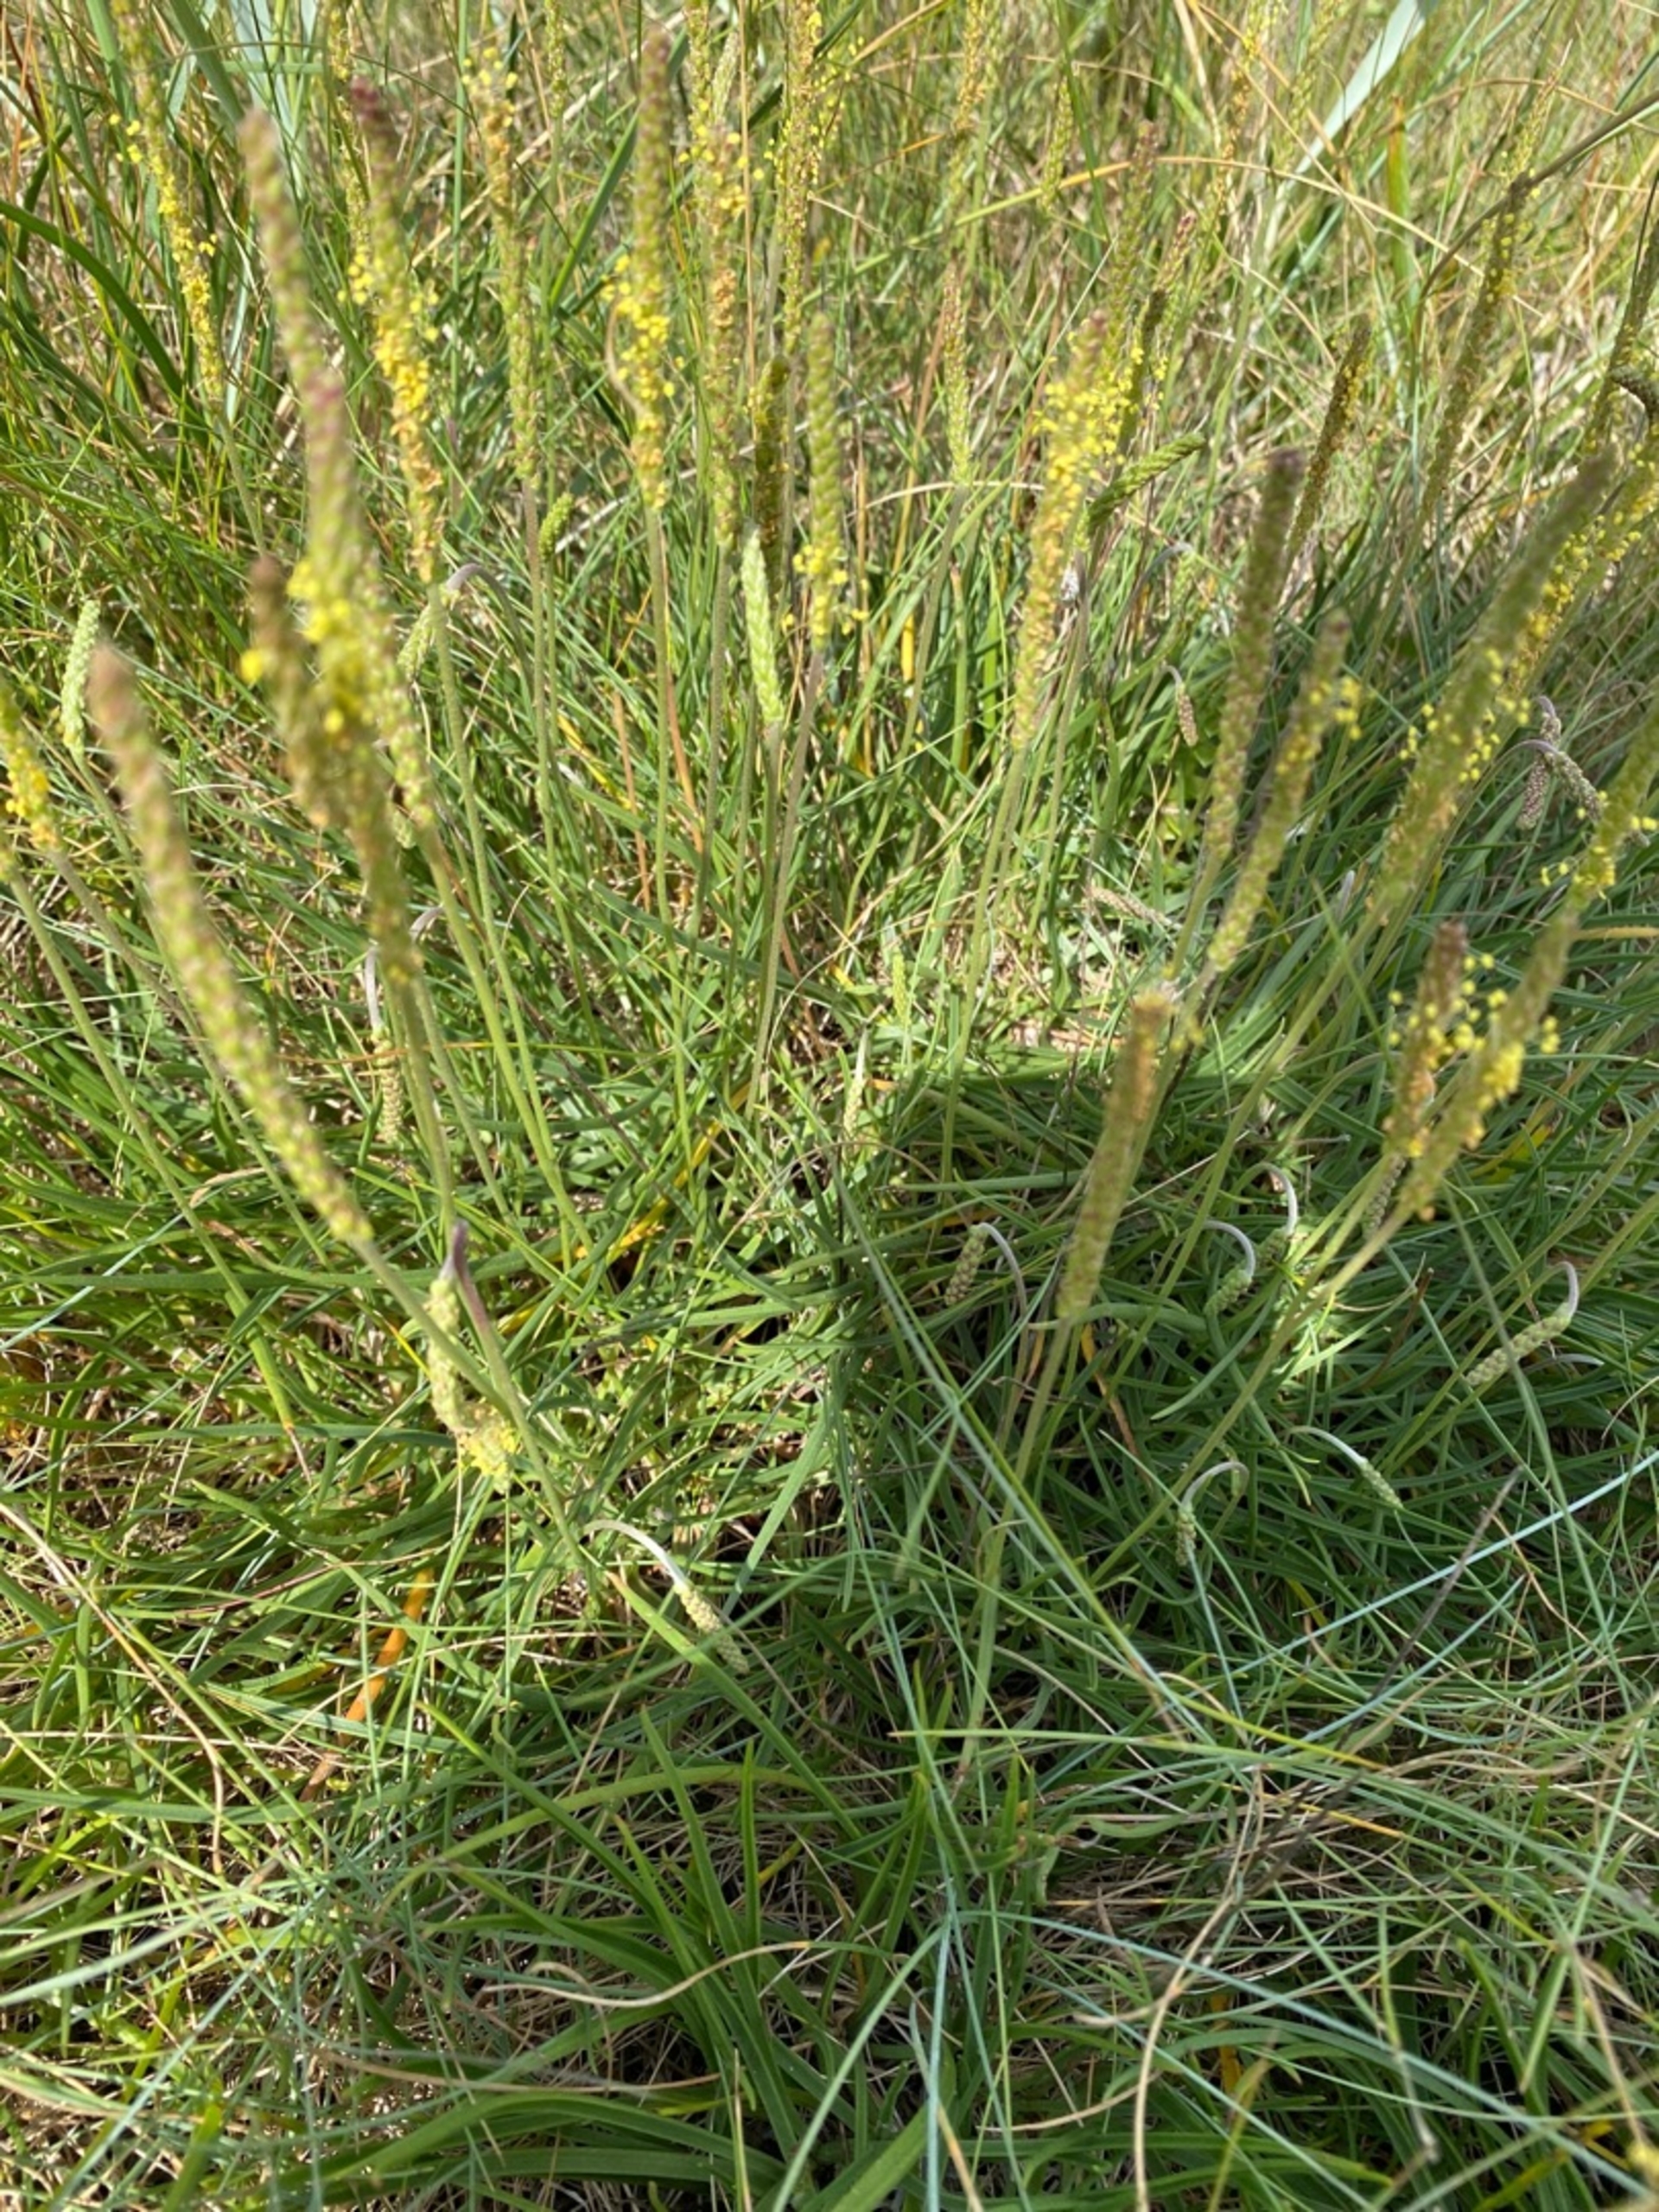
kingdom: Plantae
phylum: Tracheophyta
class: Magnoliopsida
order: Lamiales
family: Plantaginaceae
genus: Plantago
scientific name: Plantago maritima
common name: Strand-vejbred
